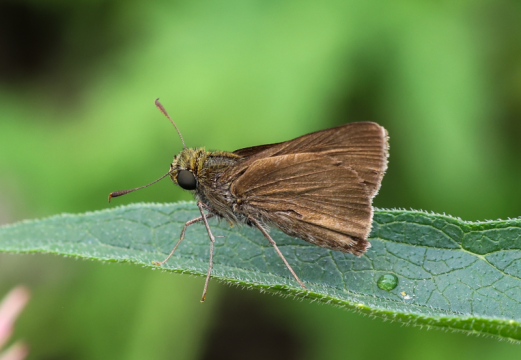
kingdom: Animalia
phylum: Arthropoda
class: Insecta
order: Lepidoptera
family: Hesperiidae
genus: Euphyes
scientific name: Euphyes vestris
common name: Dun Skipper
